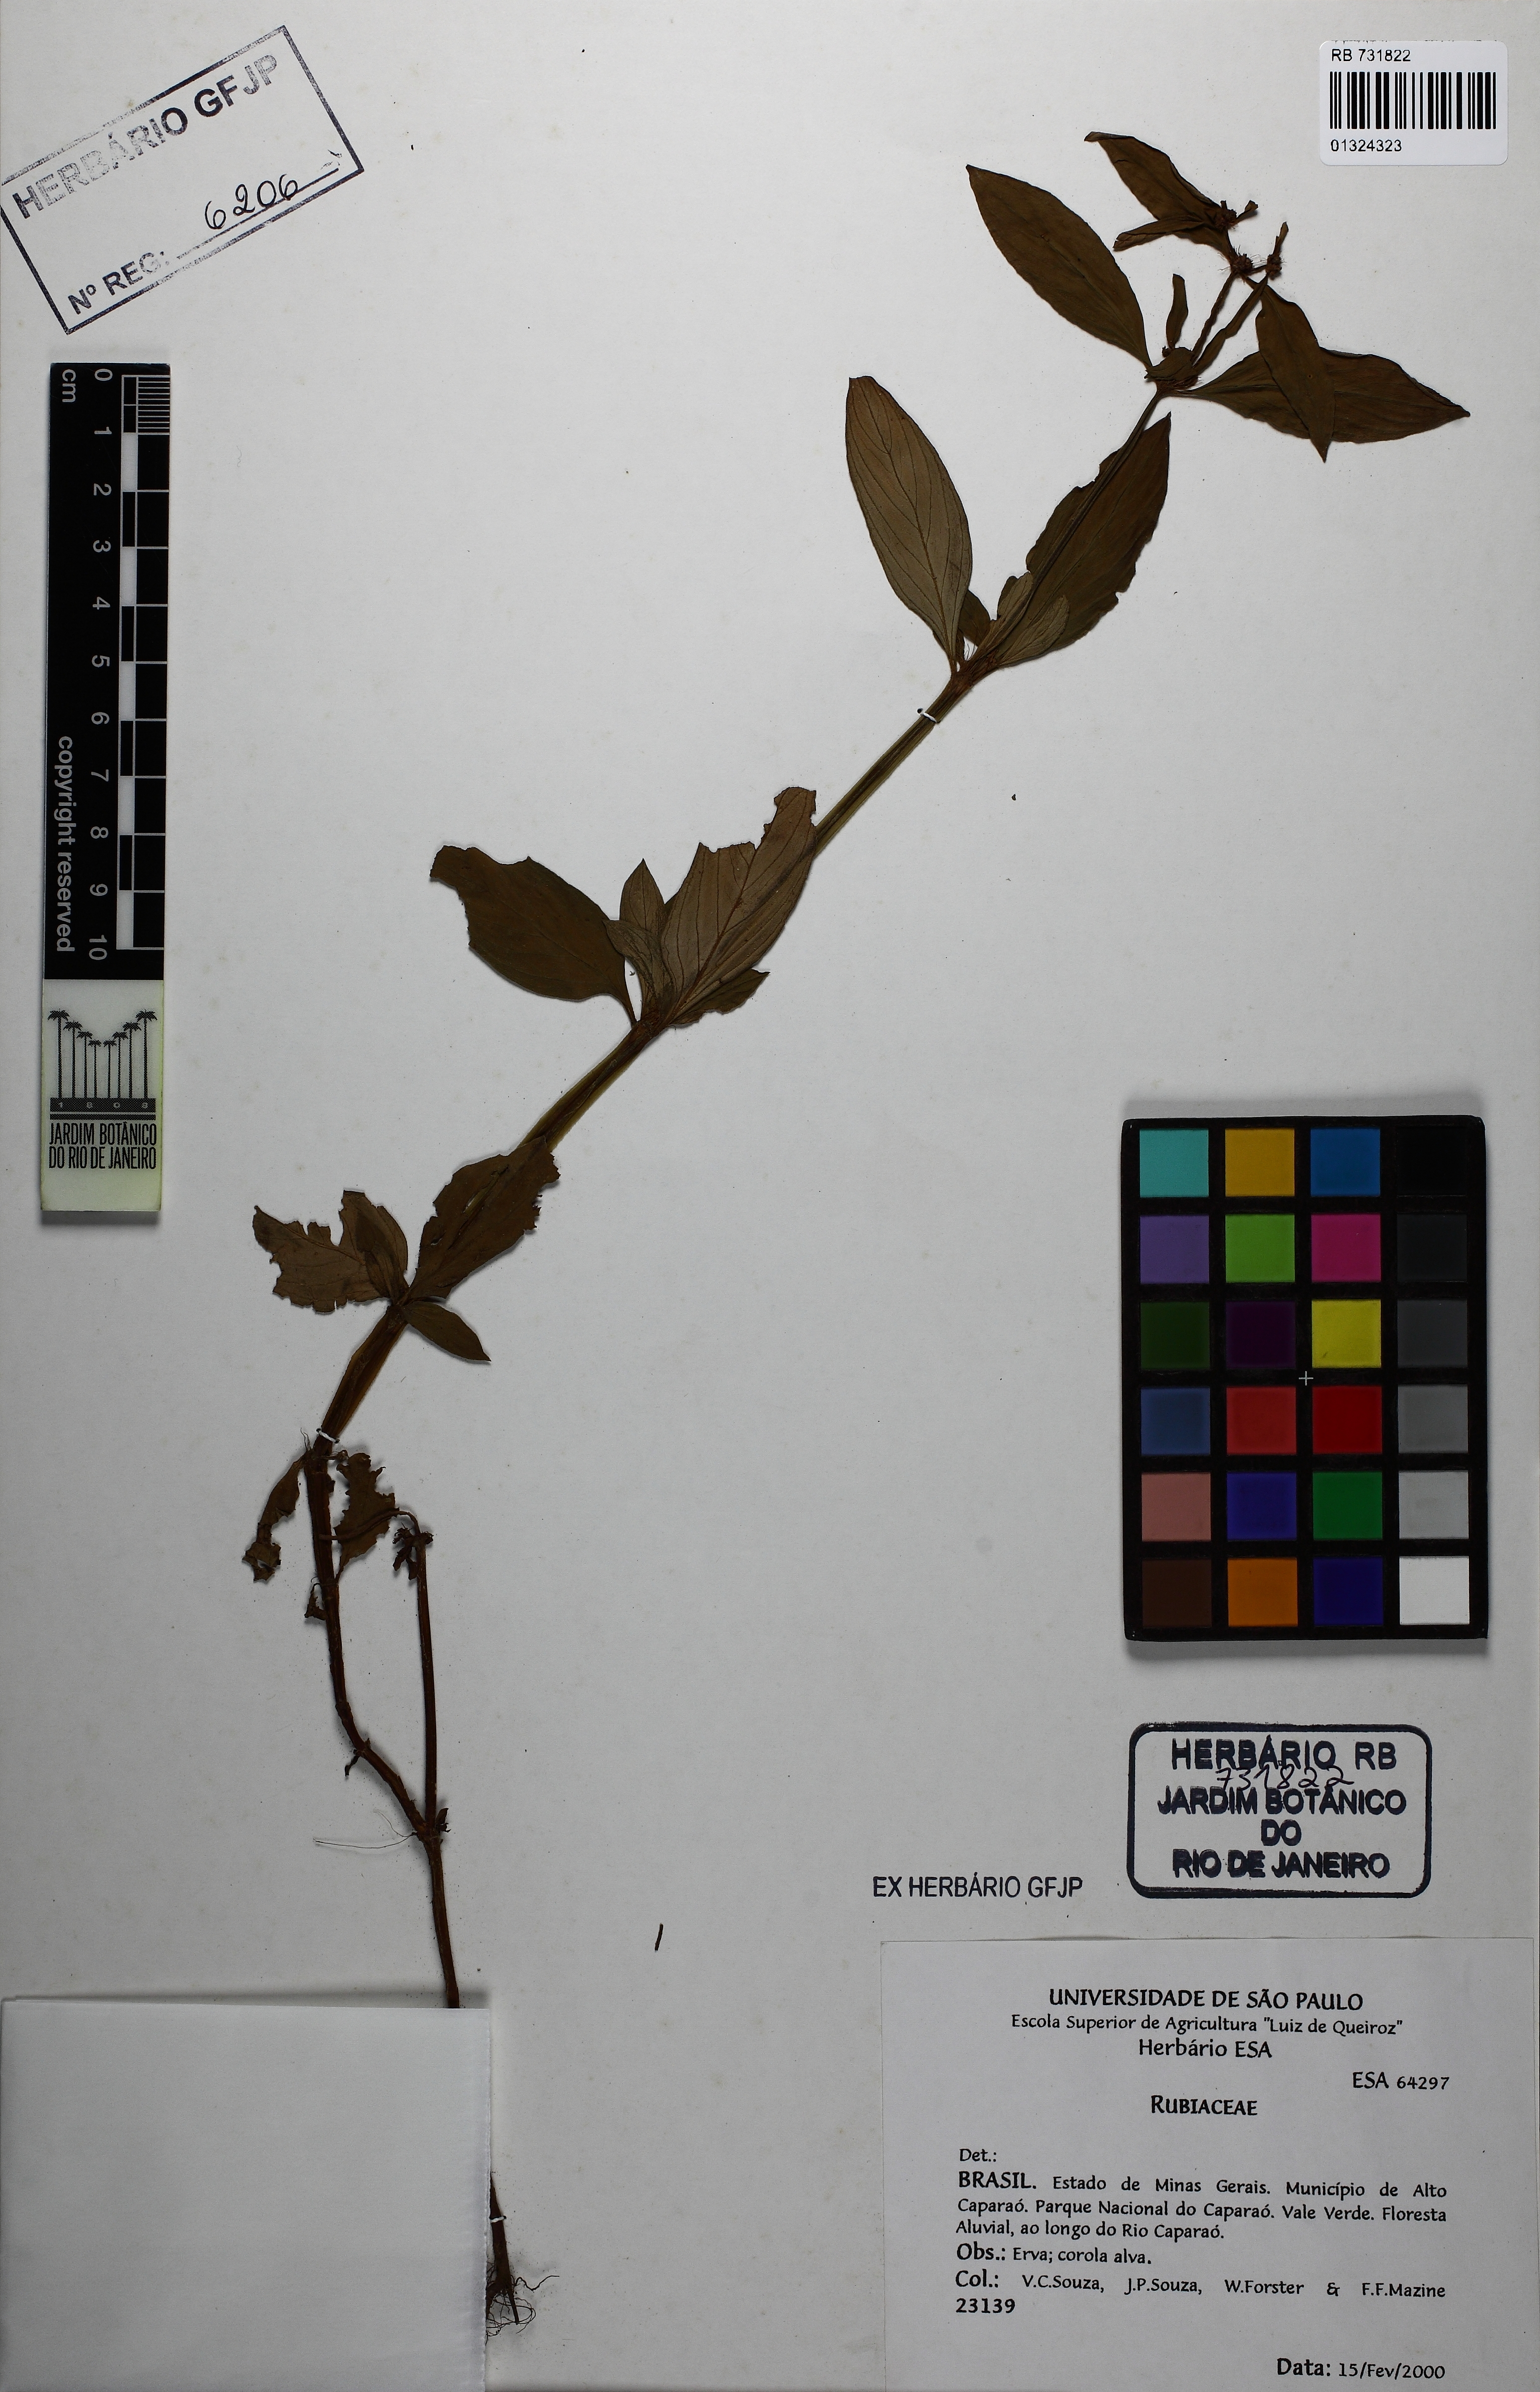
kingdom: Plantae
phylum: Tracheophyta
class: Magnoliopsida
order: Gentianales
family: Rubiaceae
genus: Galianthe
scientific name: Galianthe palustris
